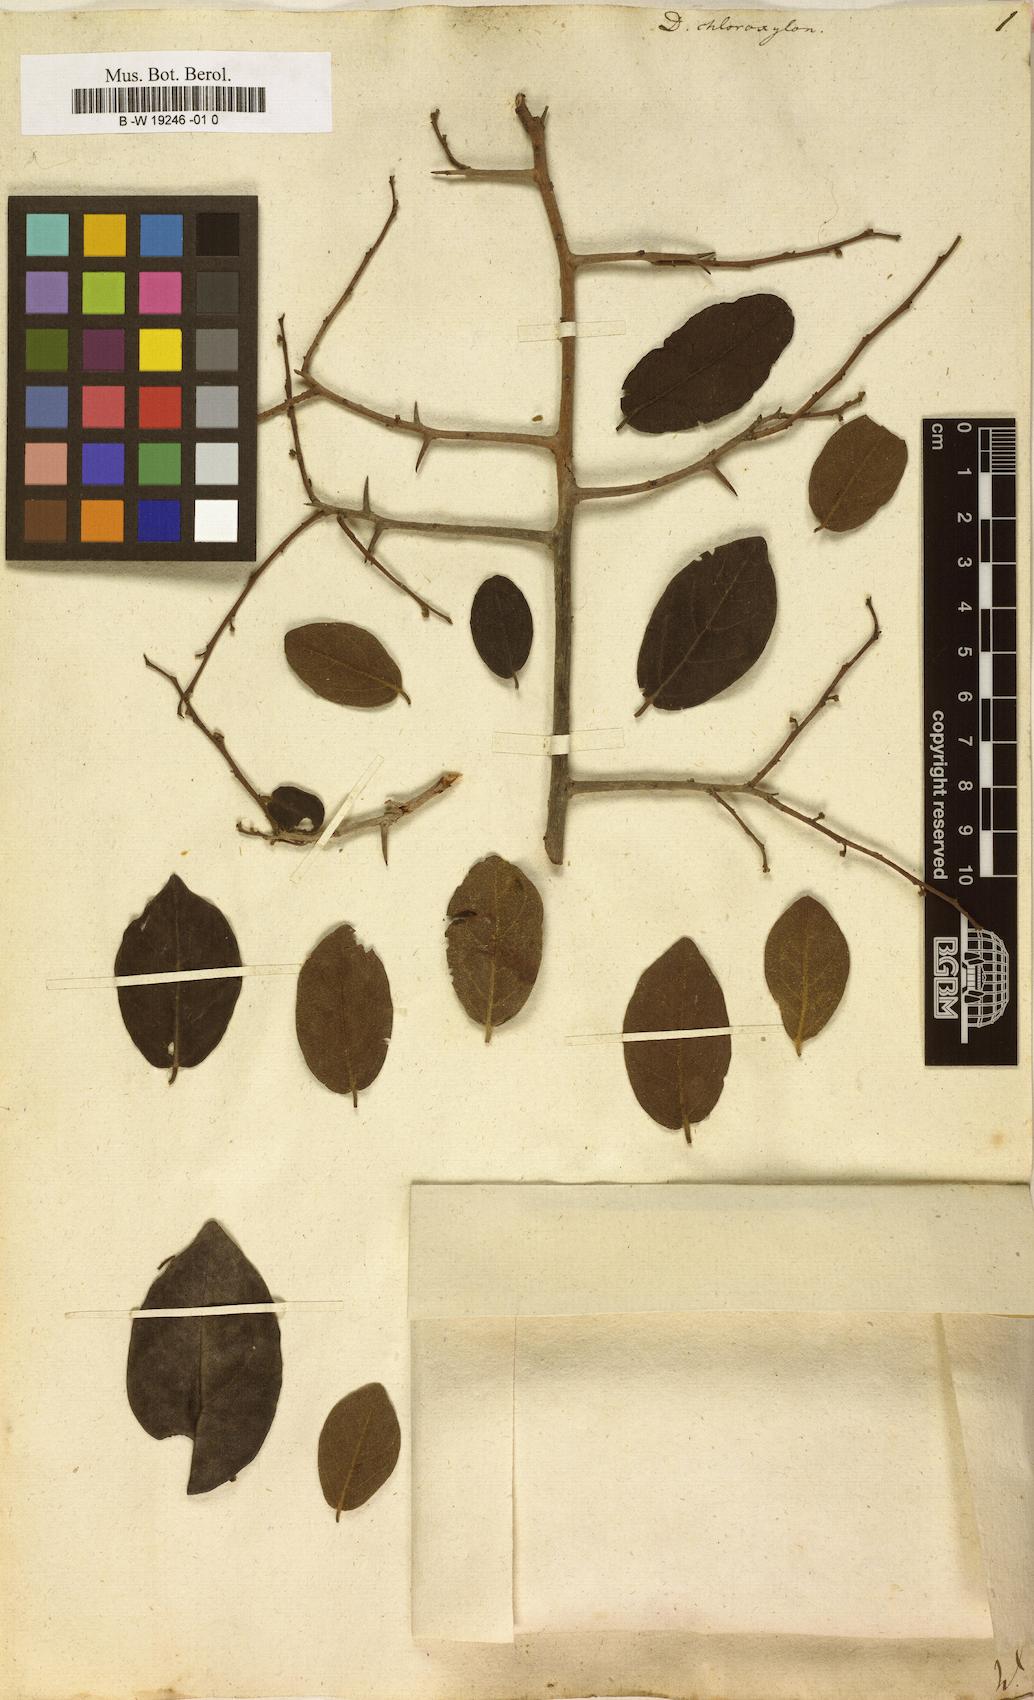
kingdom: Plantae
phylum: Tracheophyta
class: Magnoliopsida
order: Ericales
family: Ebenaceae
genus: Diospyros
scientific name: Diospyros chloroxylon
